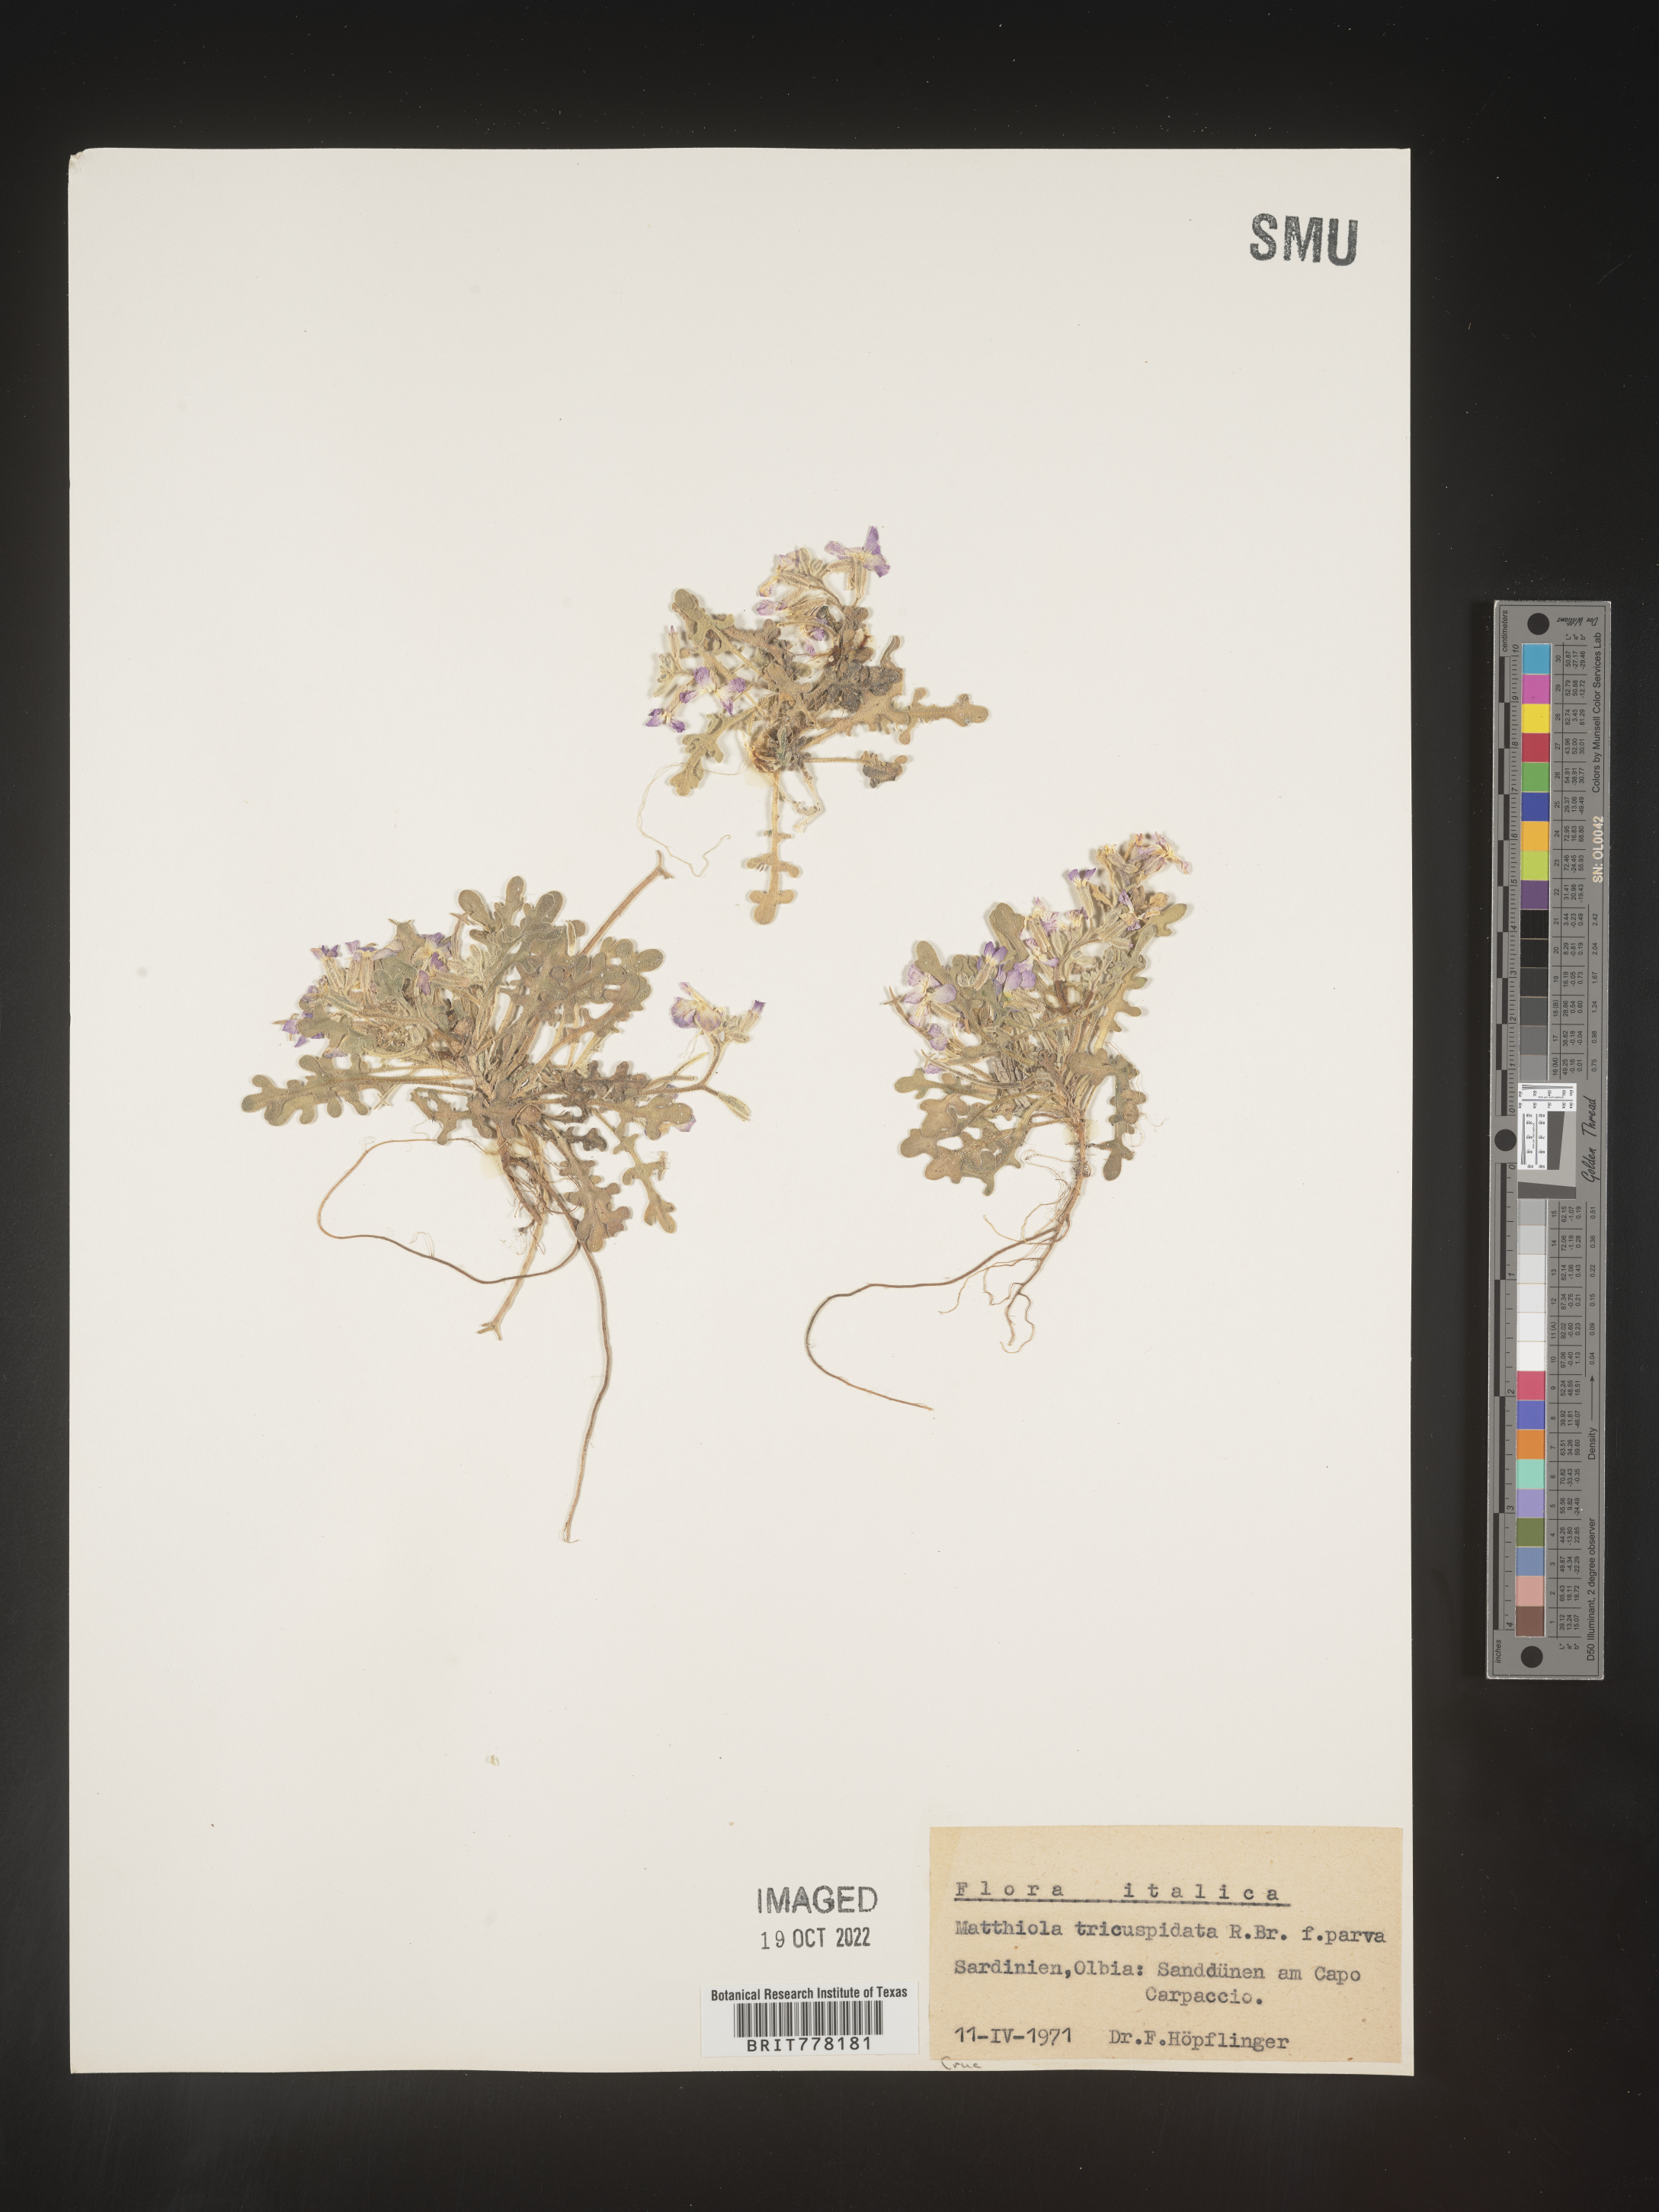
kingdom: Plantae
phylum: Tracheophyta
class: Magnoliopsida
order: Brassicales
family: Brassicaceae
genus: Matthiola
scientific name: Matthiola
